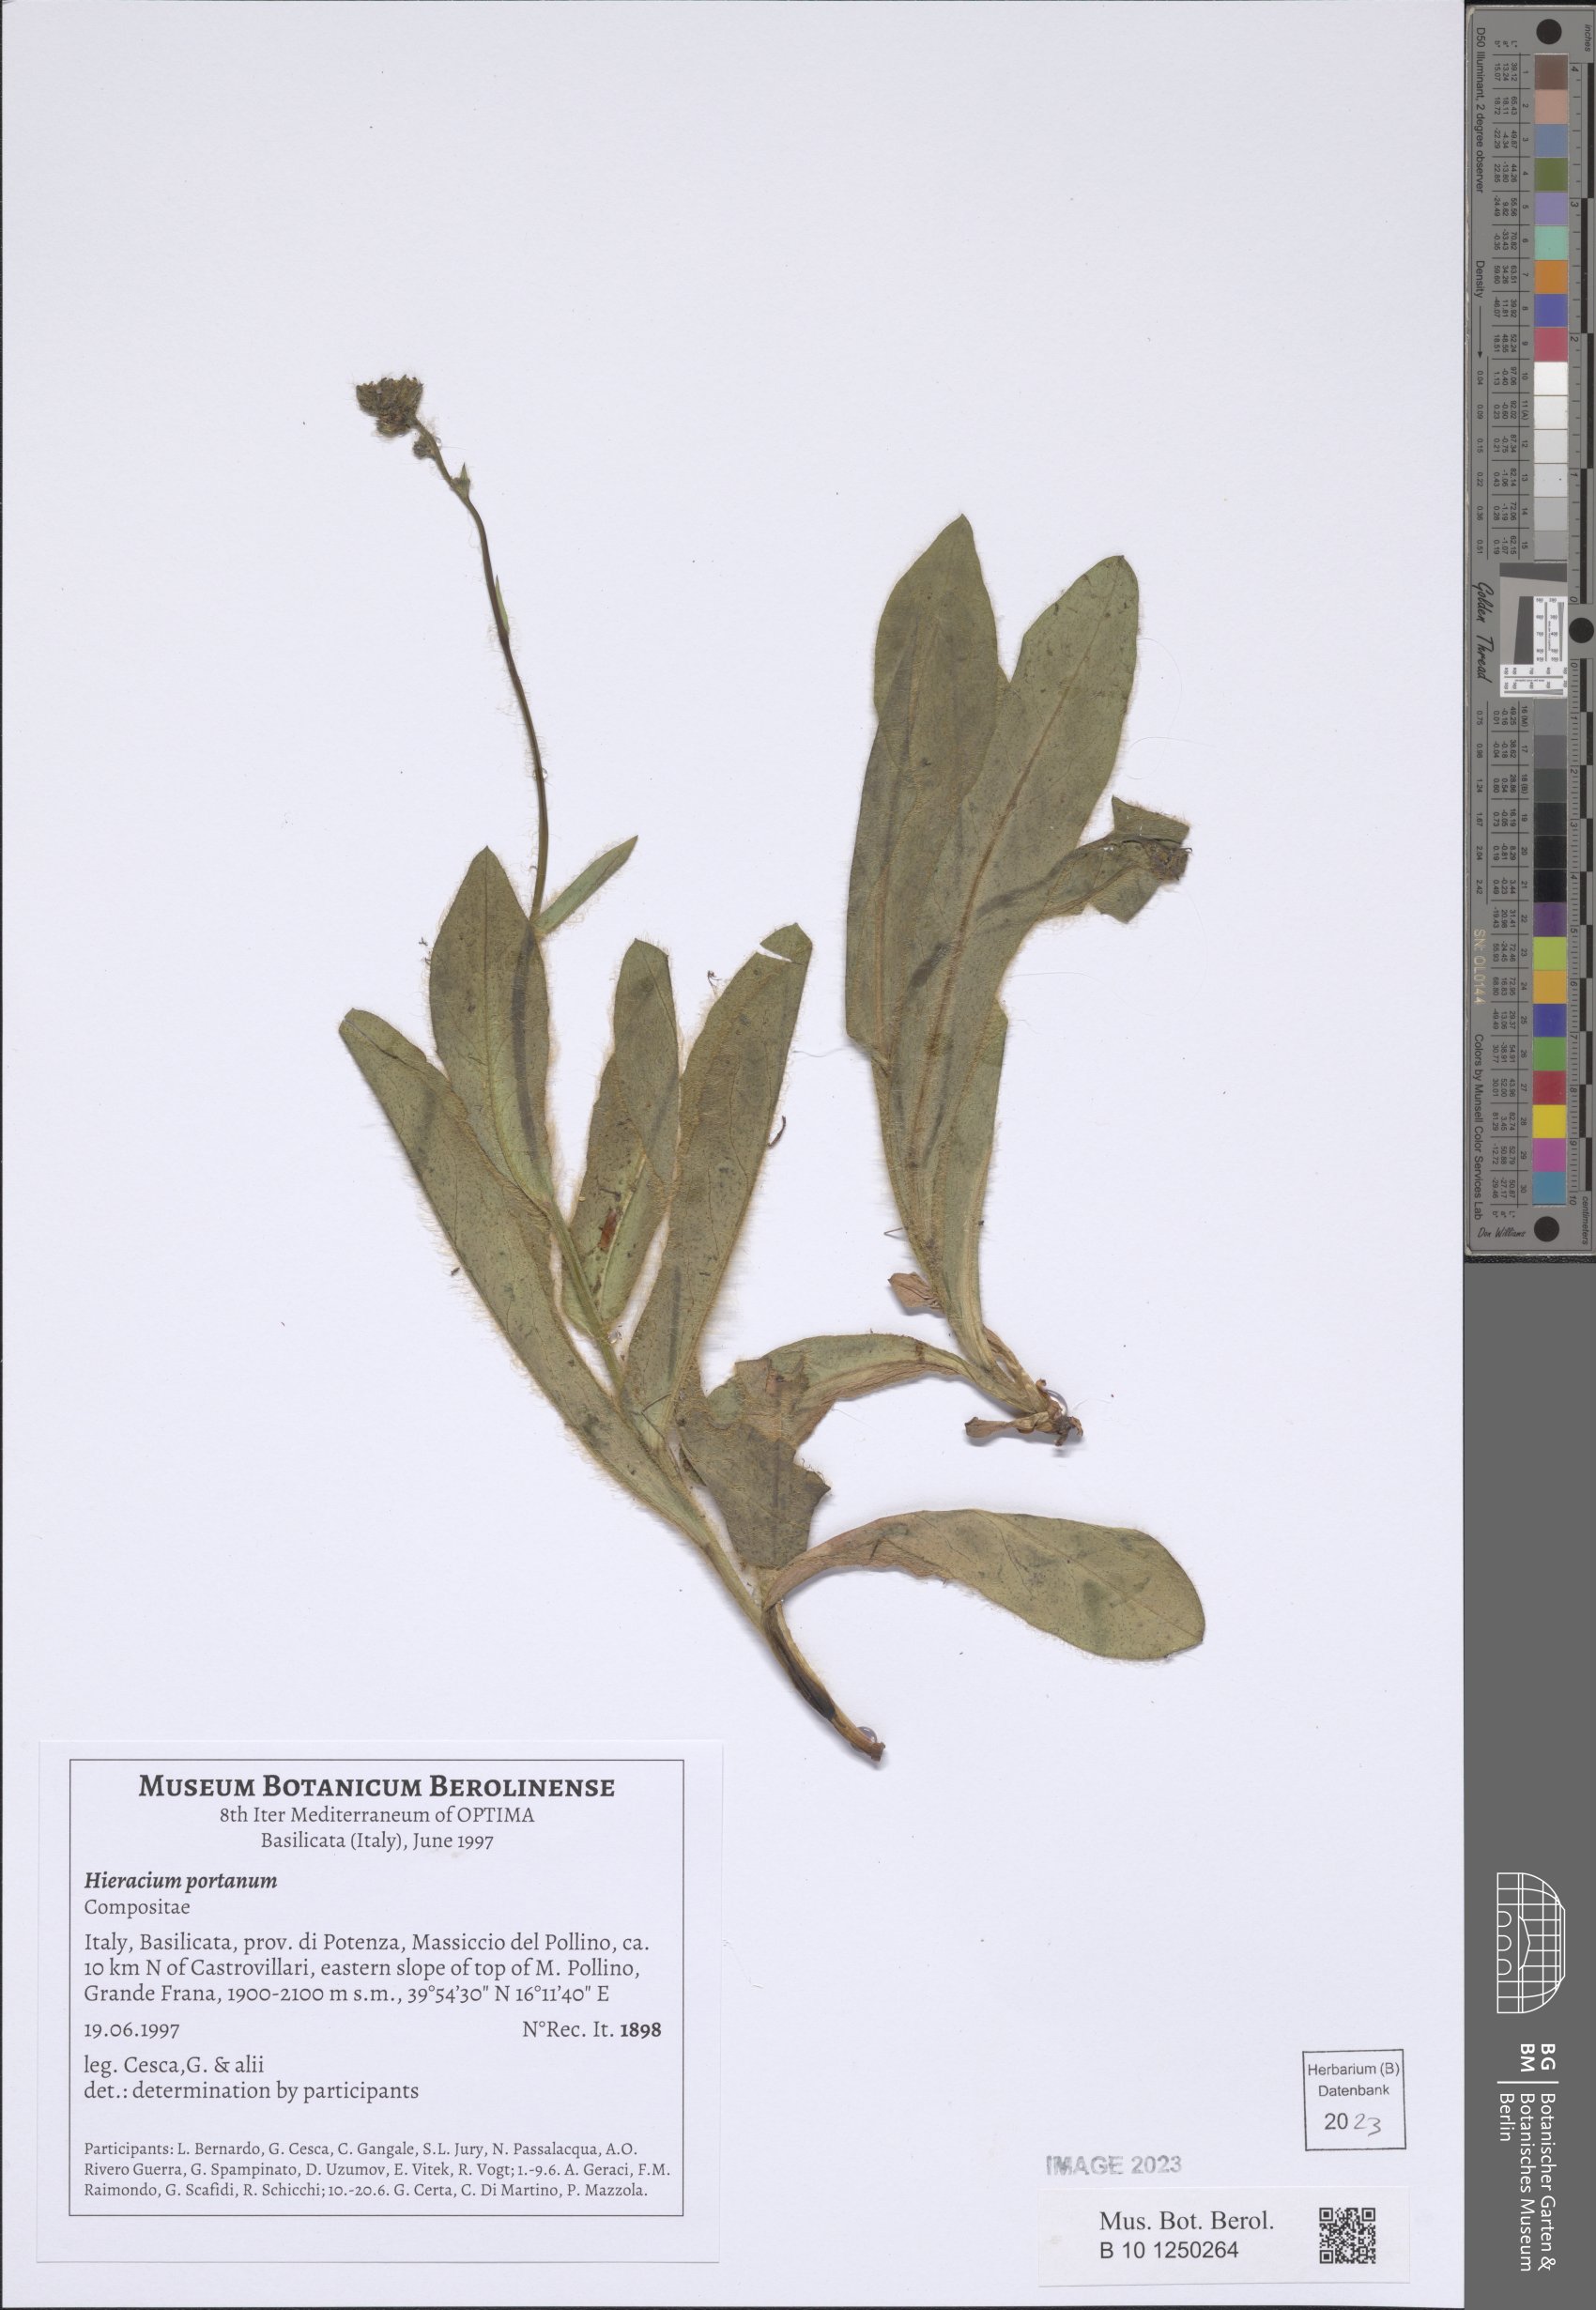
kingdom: Plantae
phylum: Tracheophyta
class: Magnoliopsida
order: Asterales
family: Asteraceae
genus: Hieracium
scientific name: Hieracium portanum
